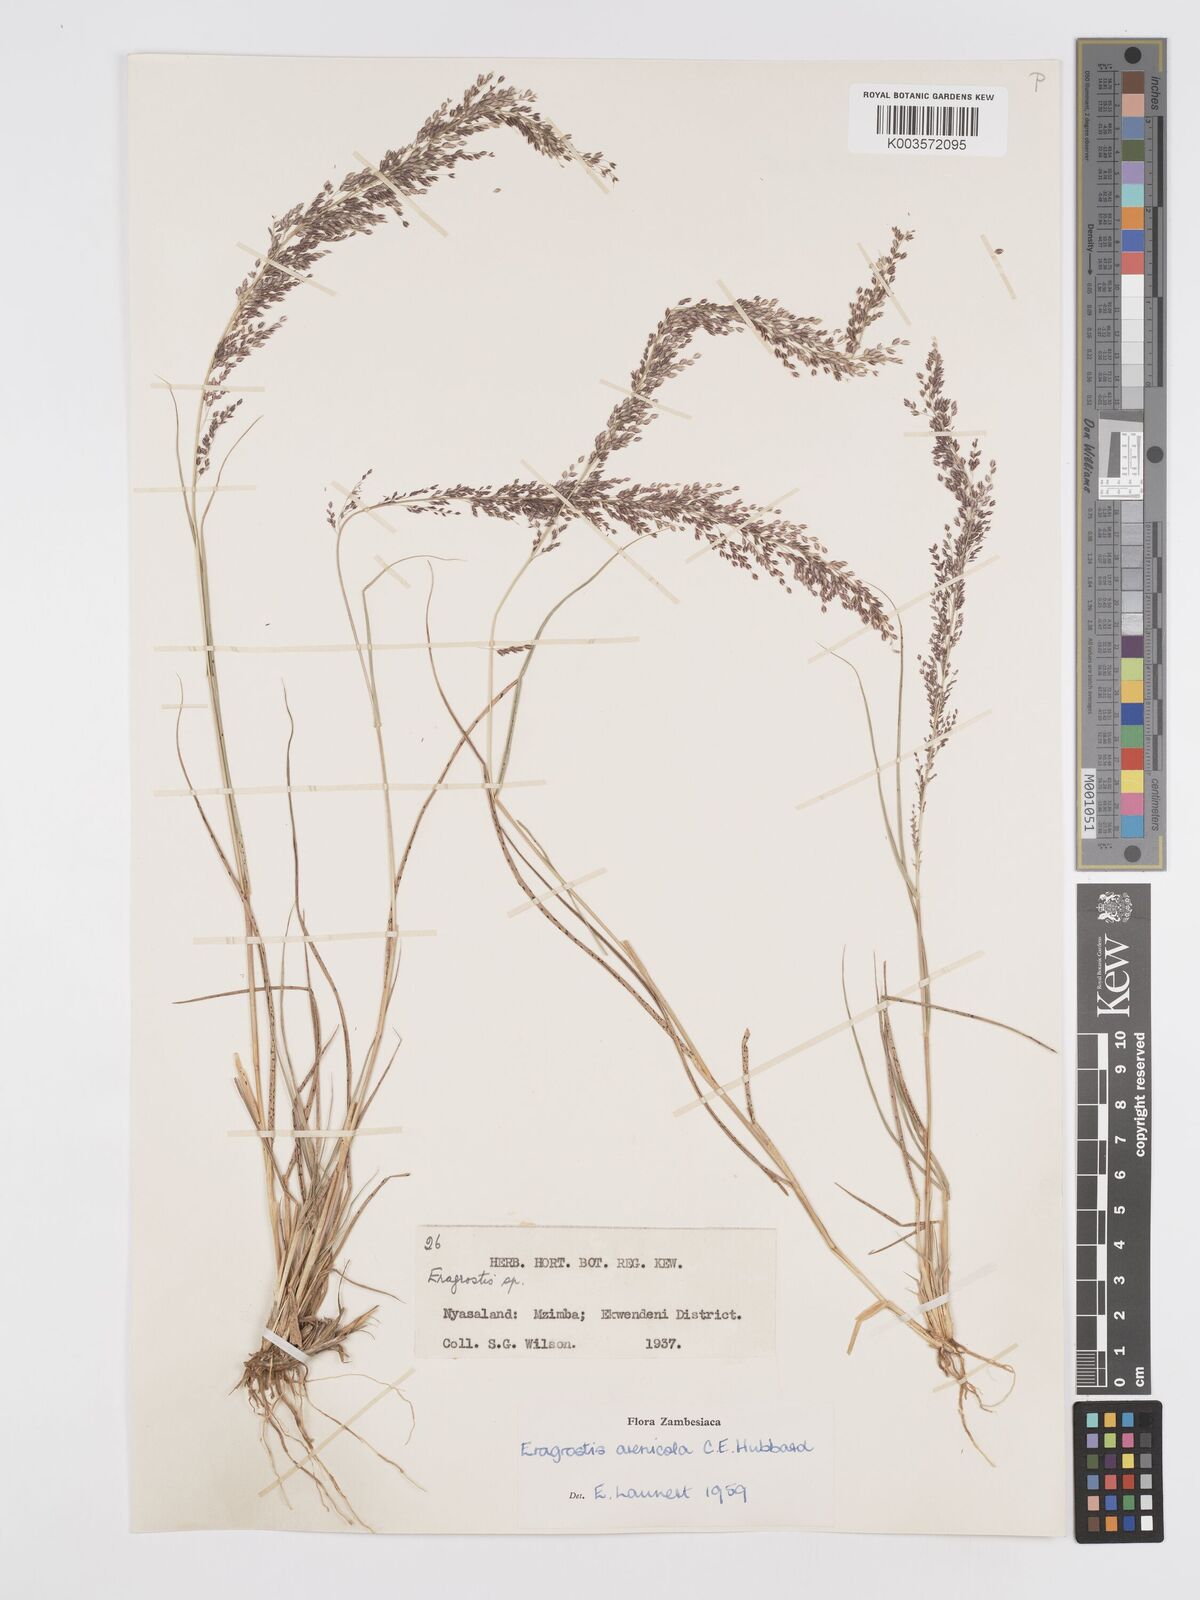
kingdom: Plantae
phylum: Tracheophyta
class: Liliopsida
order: Poales
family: Poaceae
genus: Eragrostis
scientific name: Eragrostis arenicola
